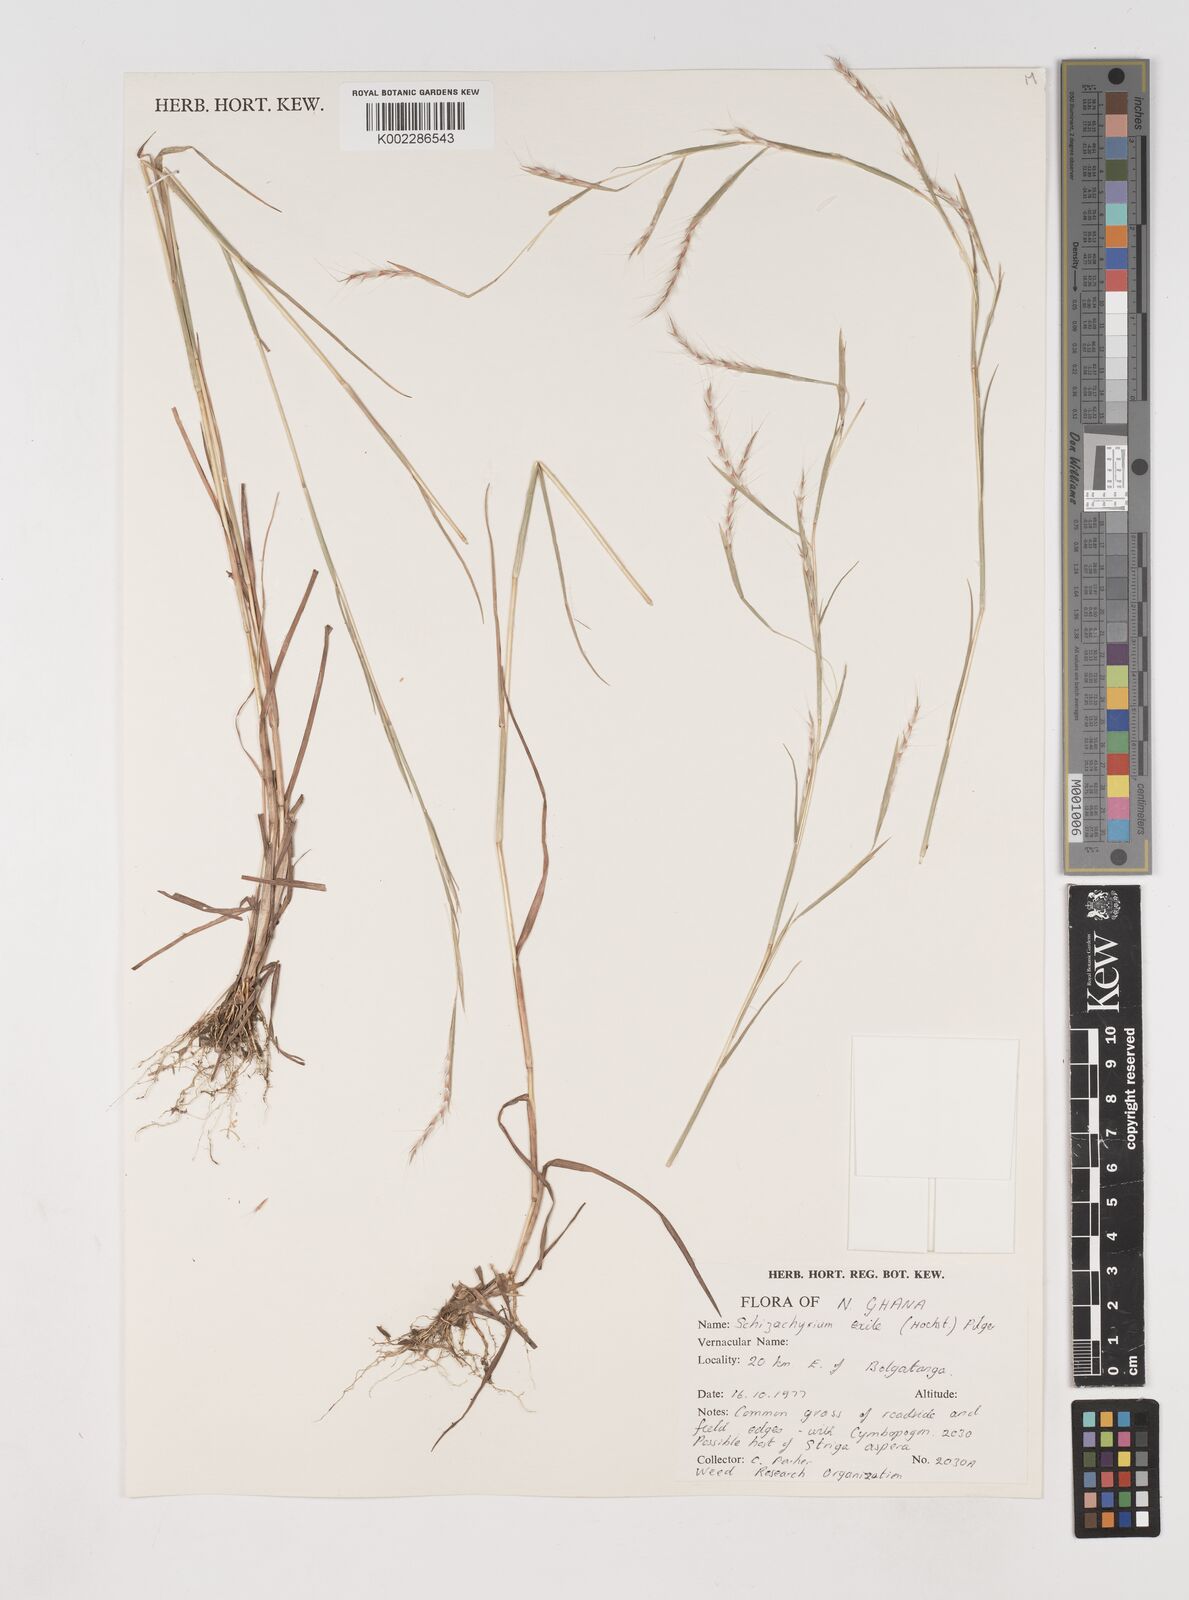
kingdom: Plantae
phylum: Tracheophyta
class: Liliopsida
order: Poales
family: Poaceae
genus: Schizachyrium
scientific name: Schizachyrium exile
